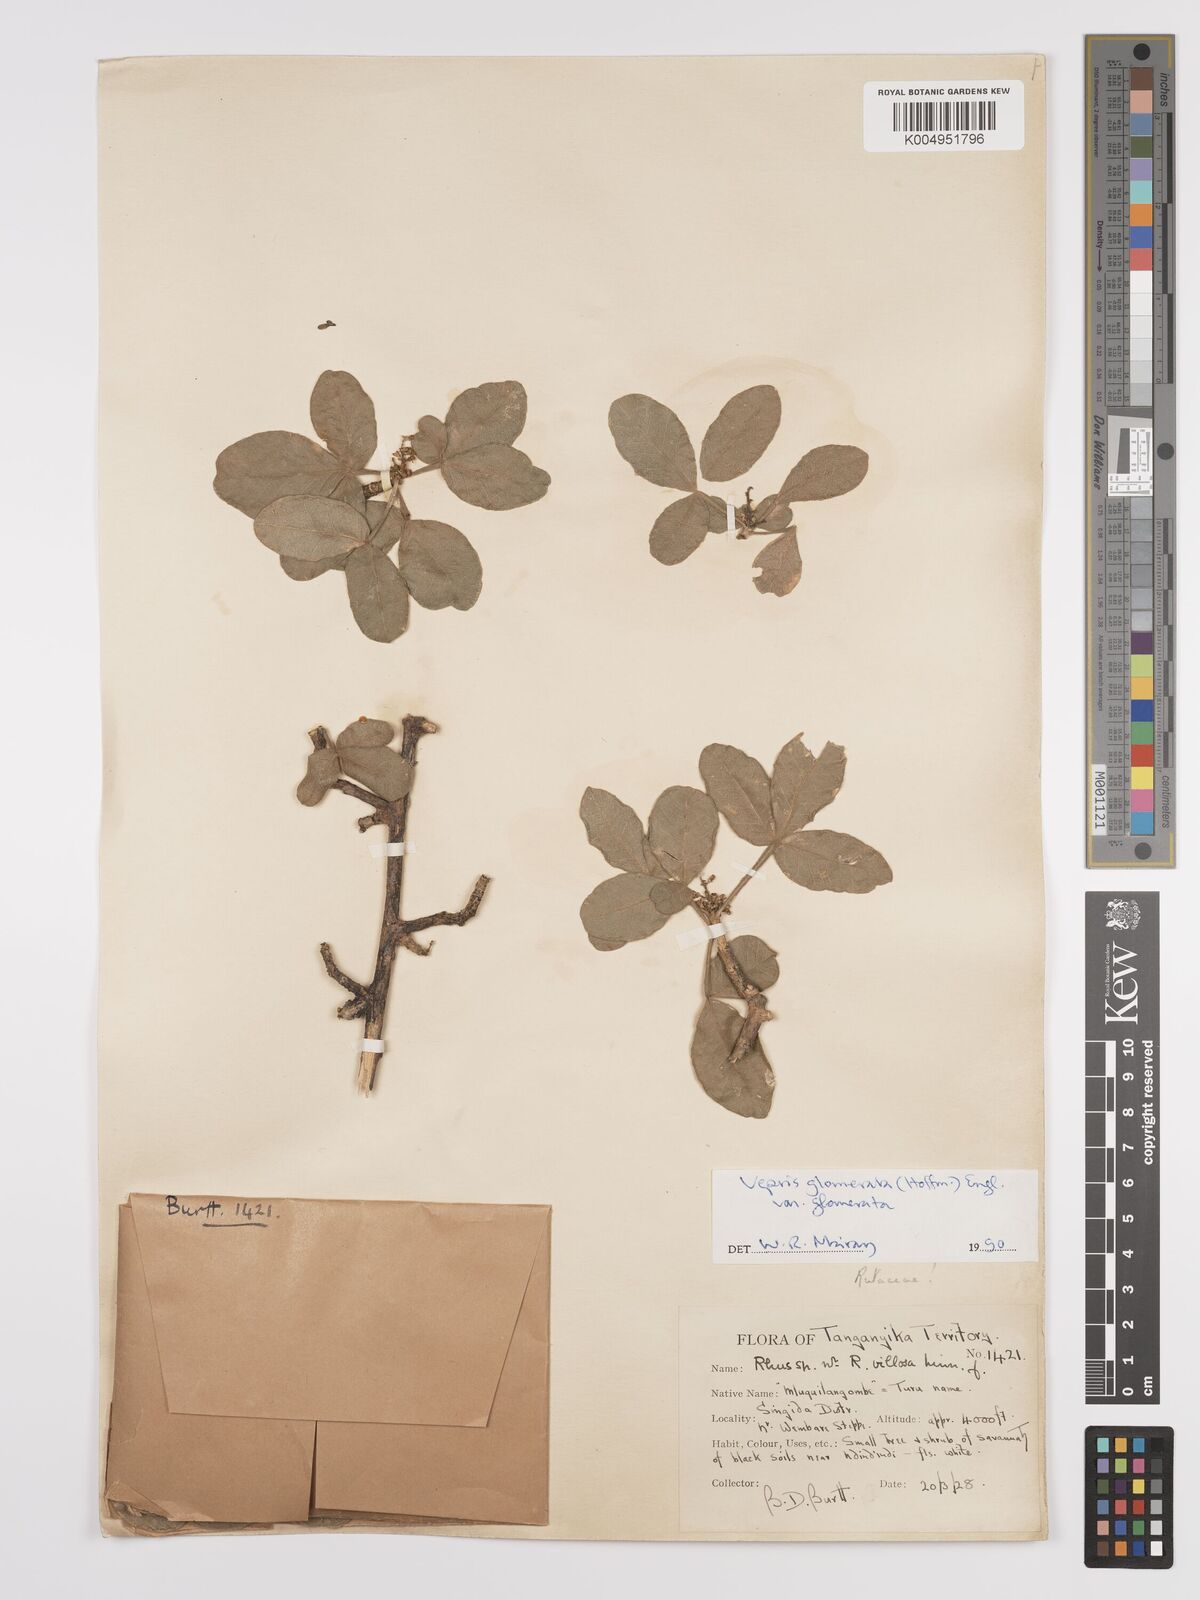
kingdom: Plantae
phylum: Tracheophyta
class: Magnoliopsida
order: Sapindales
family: Rutaceae
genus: Vepris
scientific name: Vepris glomerata
